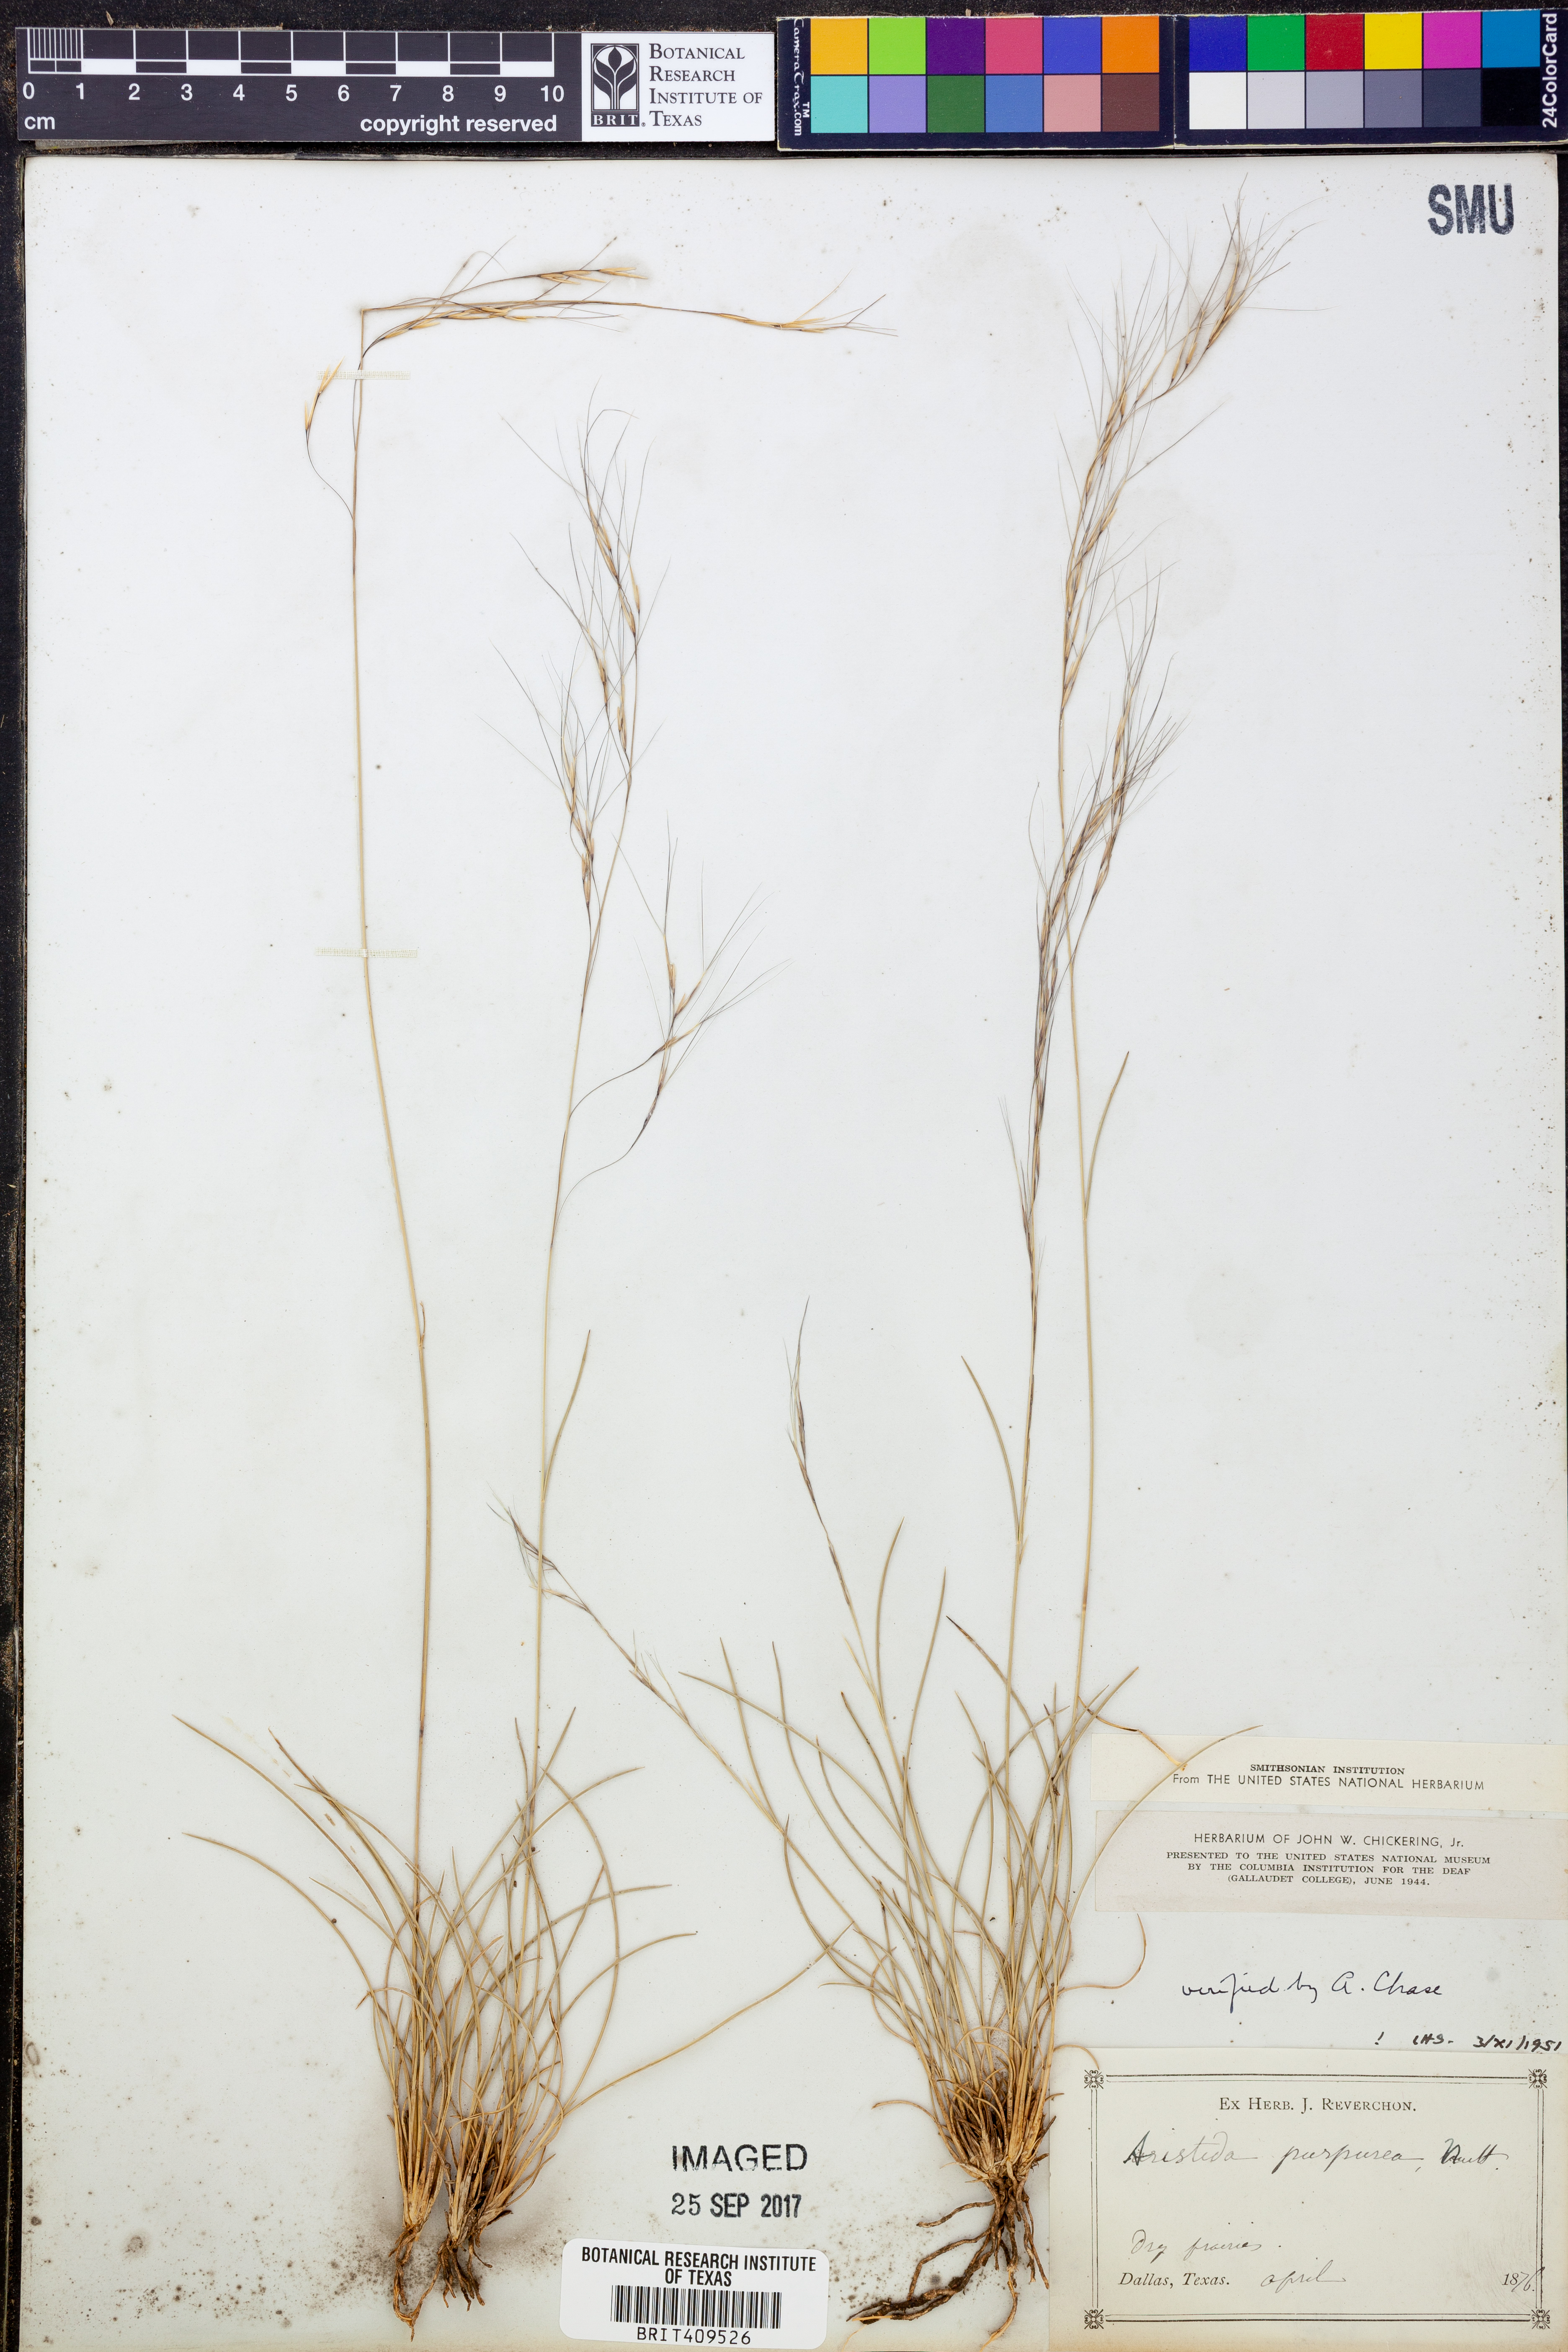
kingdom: Plantae
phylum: Tracheophyta
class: Liliopsida
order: Poales
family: Poaceae
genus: Aristida
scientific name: Aristida purpurea
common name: Purple threeawn
